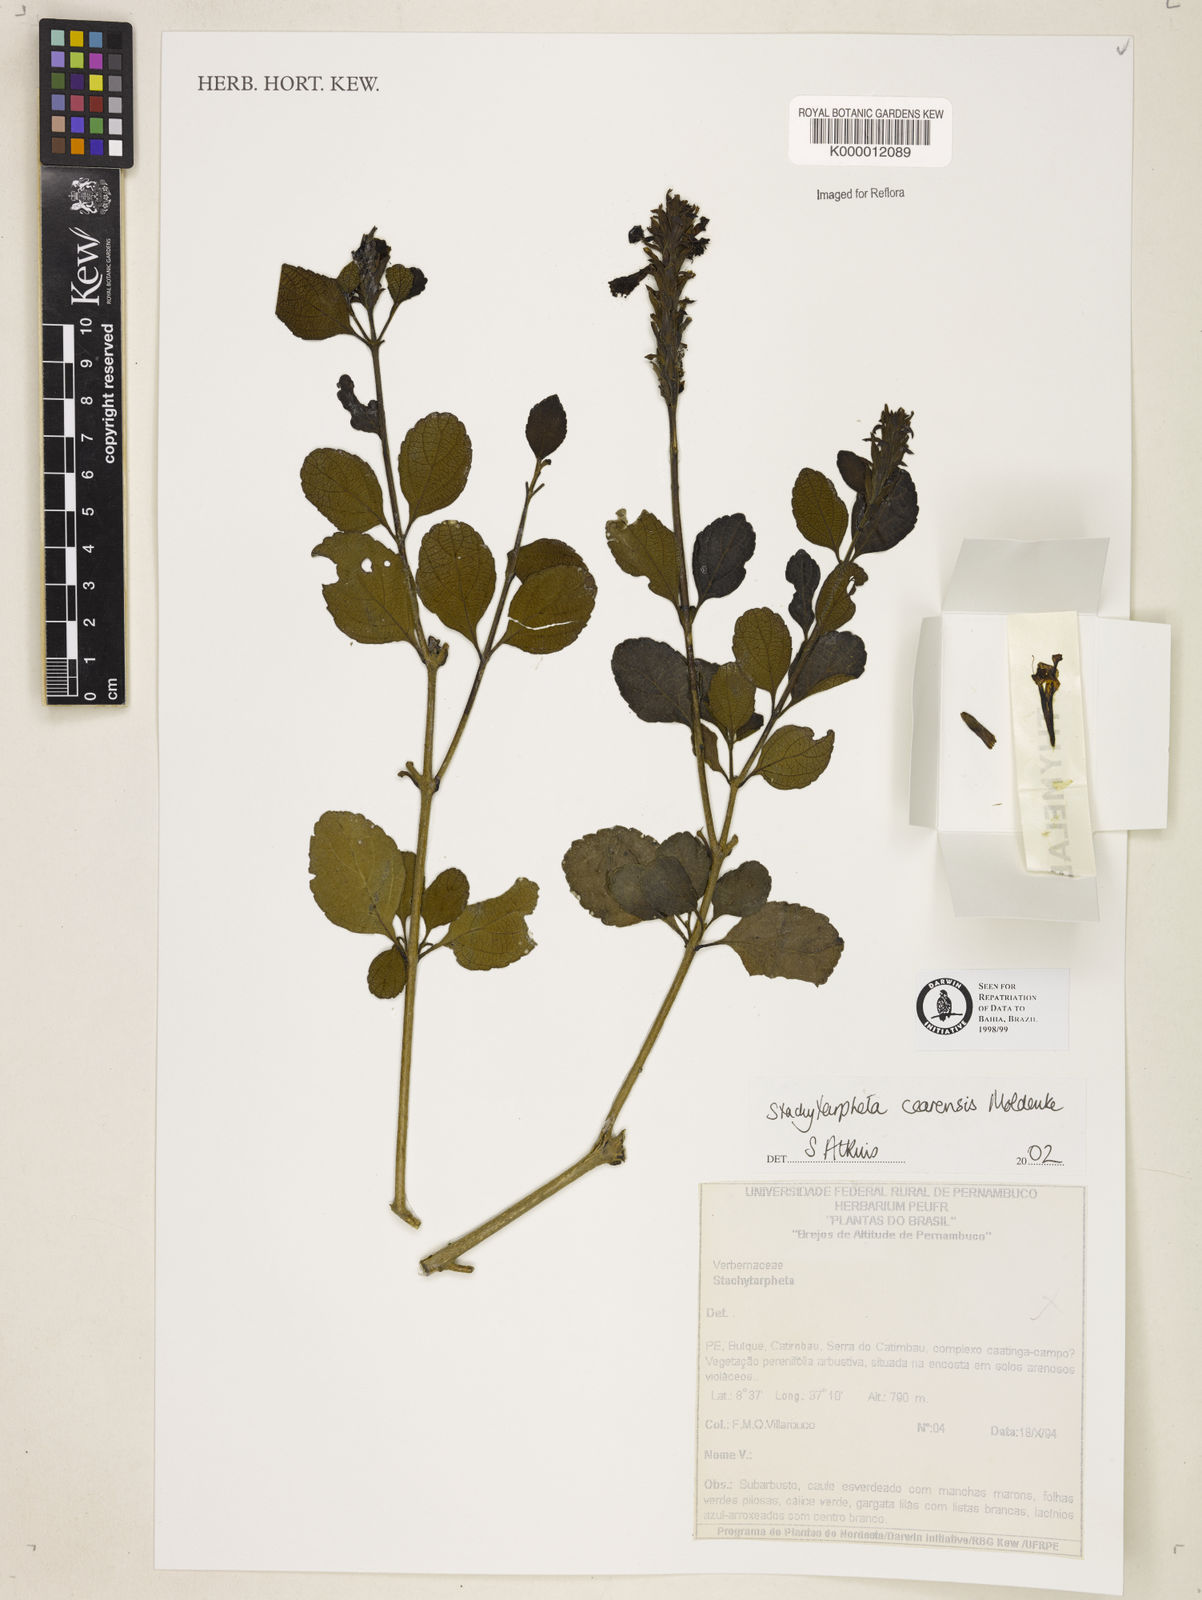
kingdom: Plantae
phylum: Tracheophyta
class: Magnoliopsida
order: Lamiales
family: Verbenaceae
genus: Stachytarpheta
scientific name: Stachytarpheta
